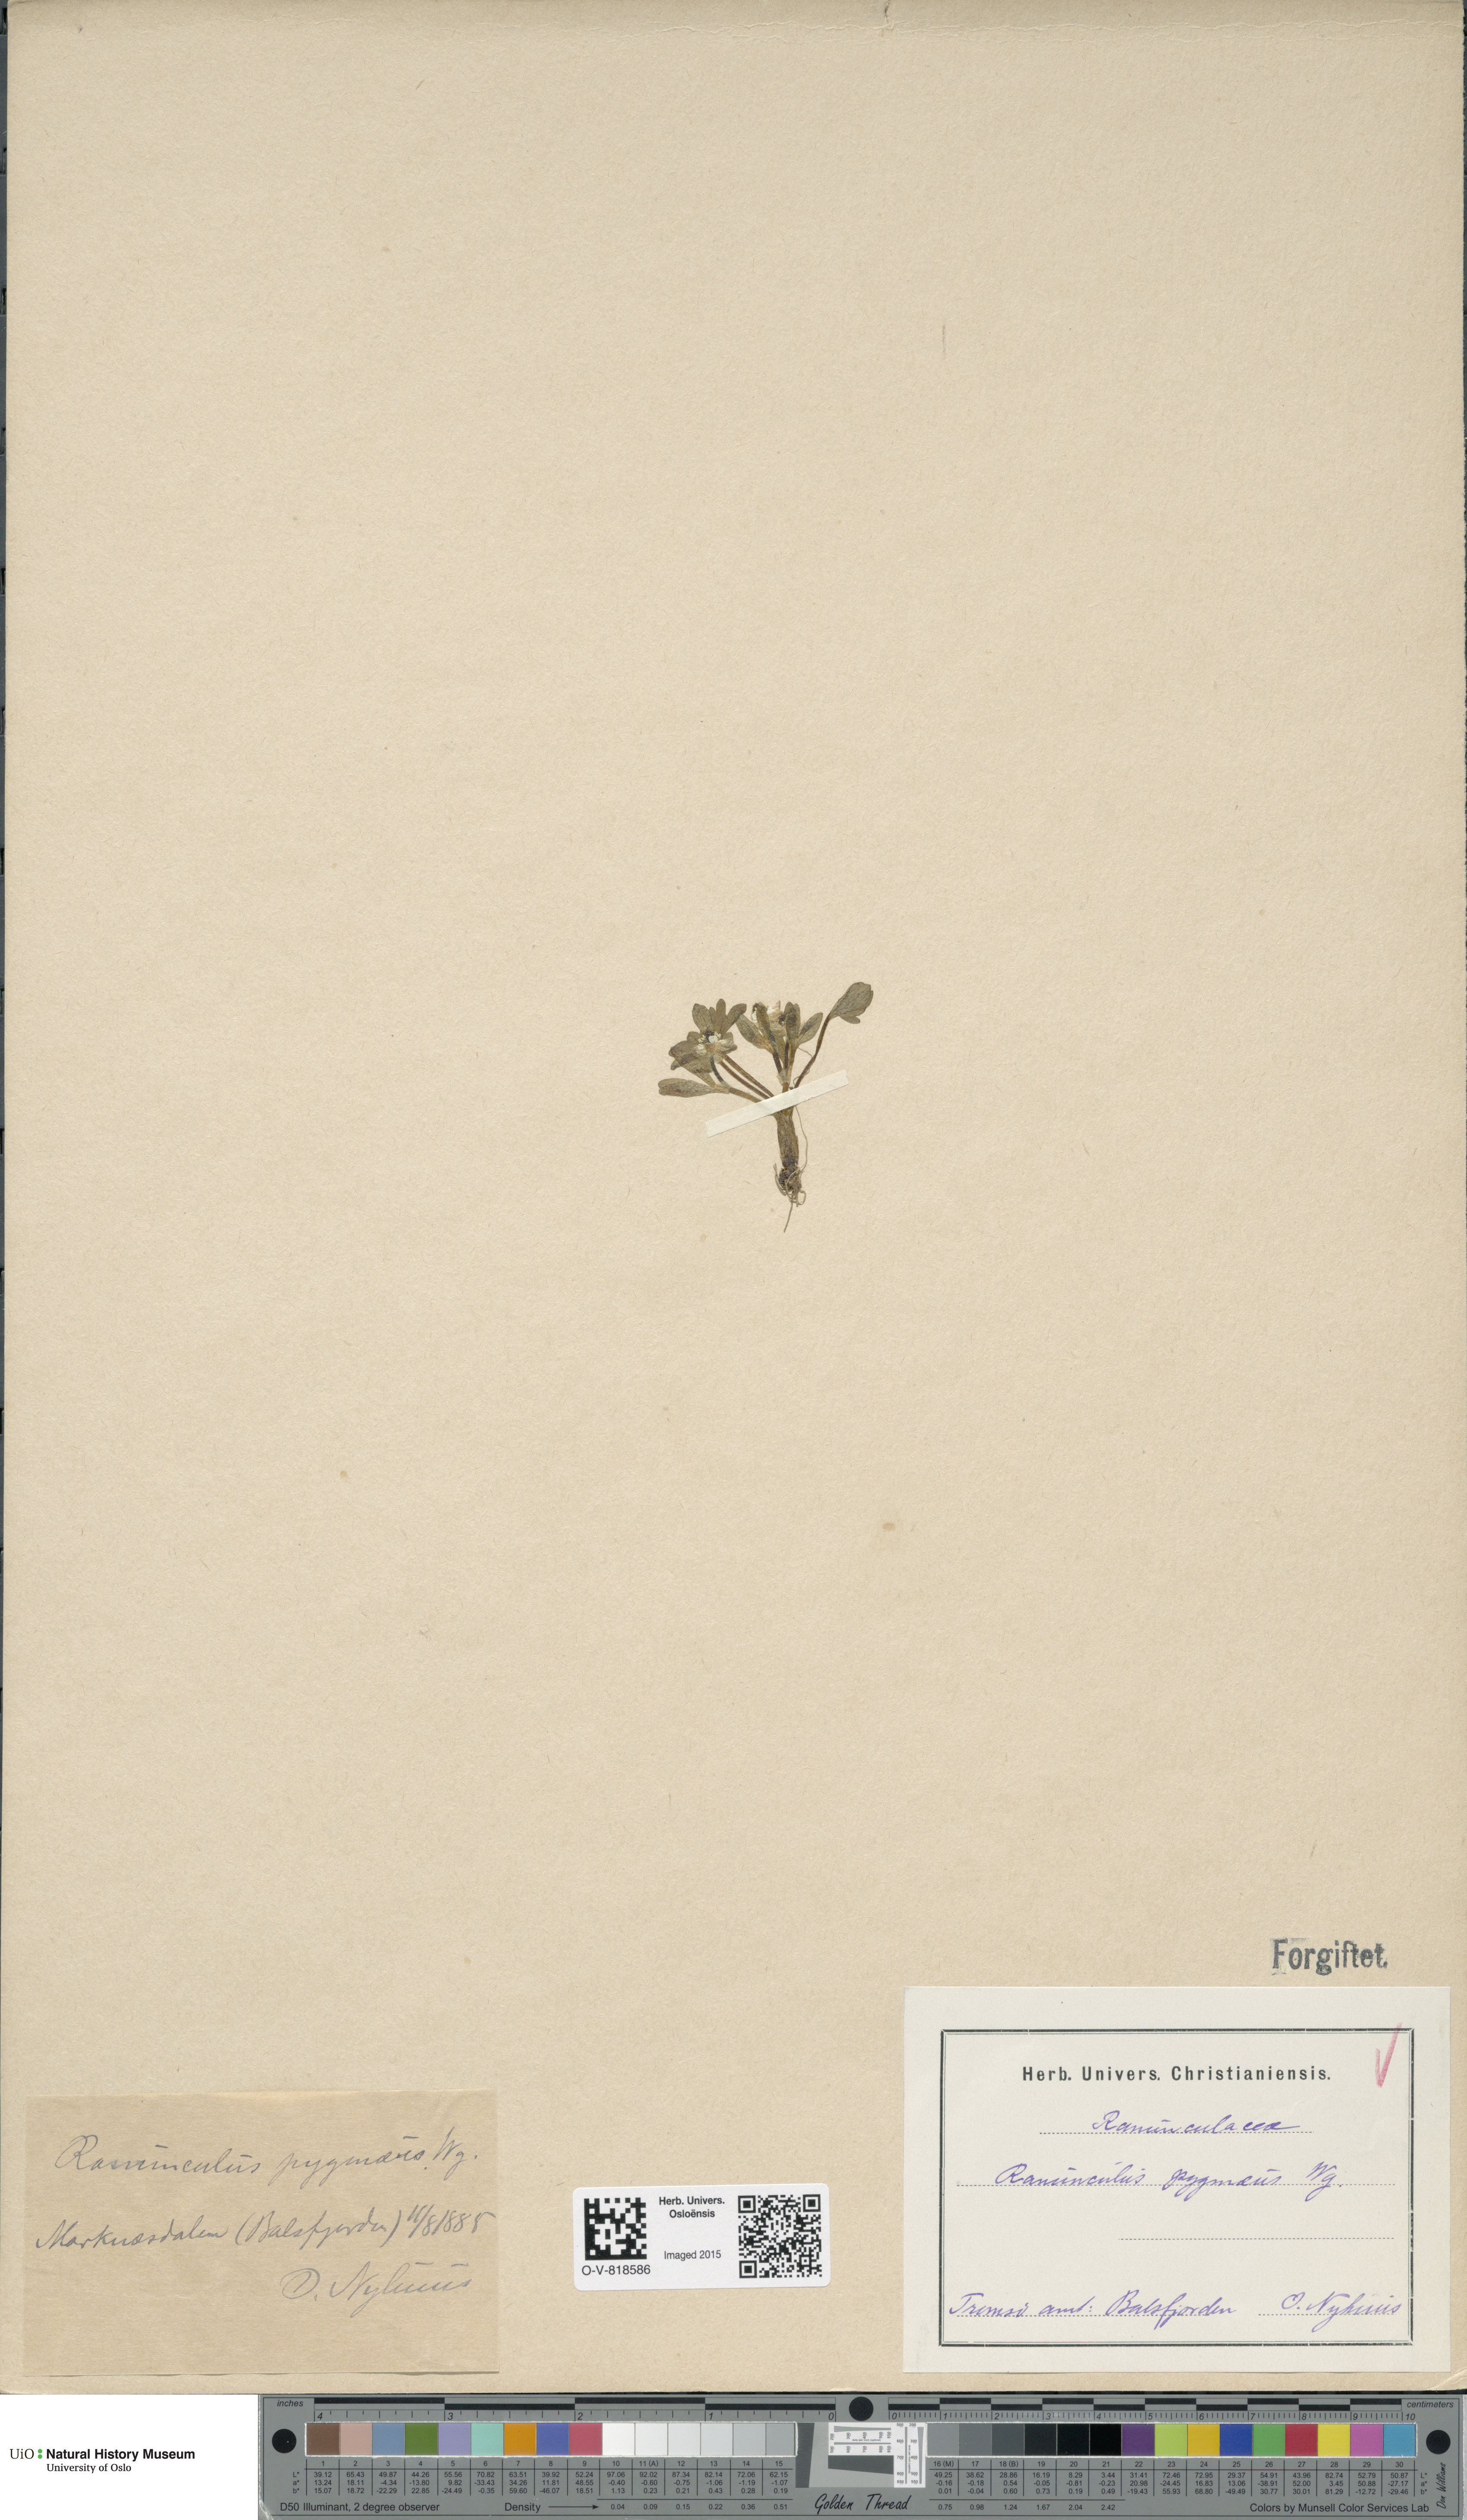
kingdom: Plantae
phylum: Tracheophyta
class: Magnoliopsida
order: Ranunculales
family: Ranunculaceae
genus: Ranunculus
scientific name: Ranunculus pygmaeus
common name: Dwarf buttercup
